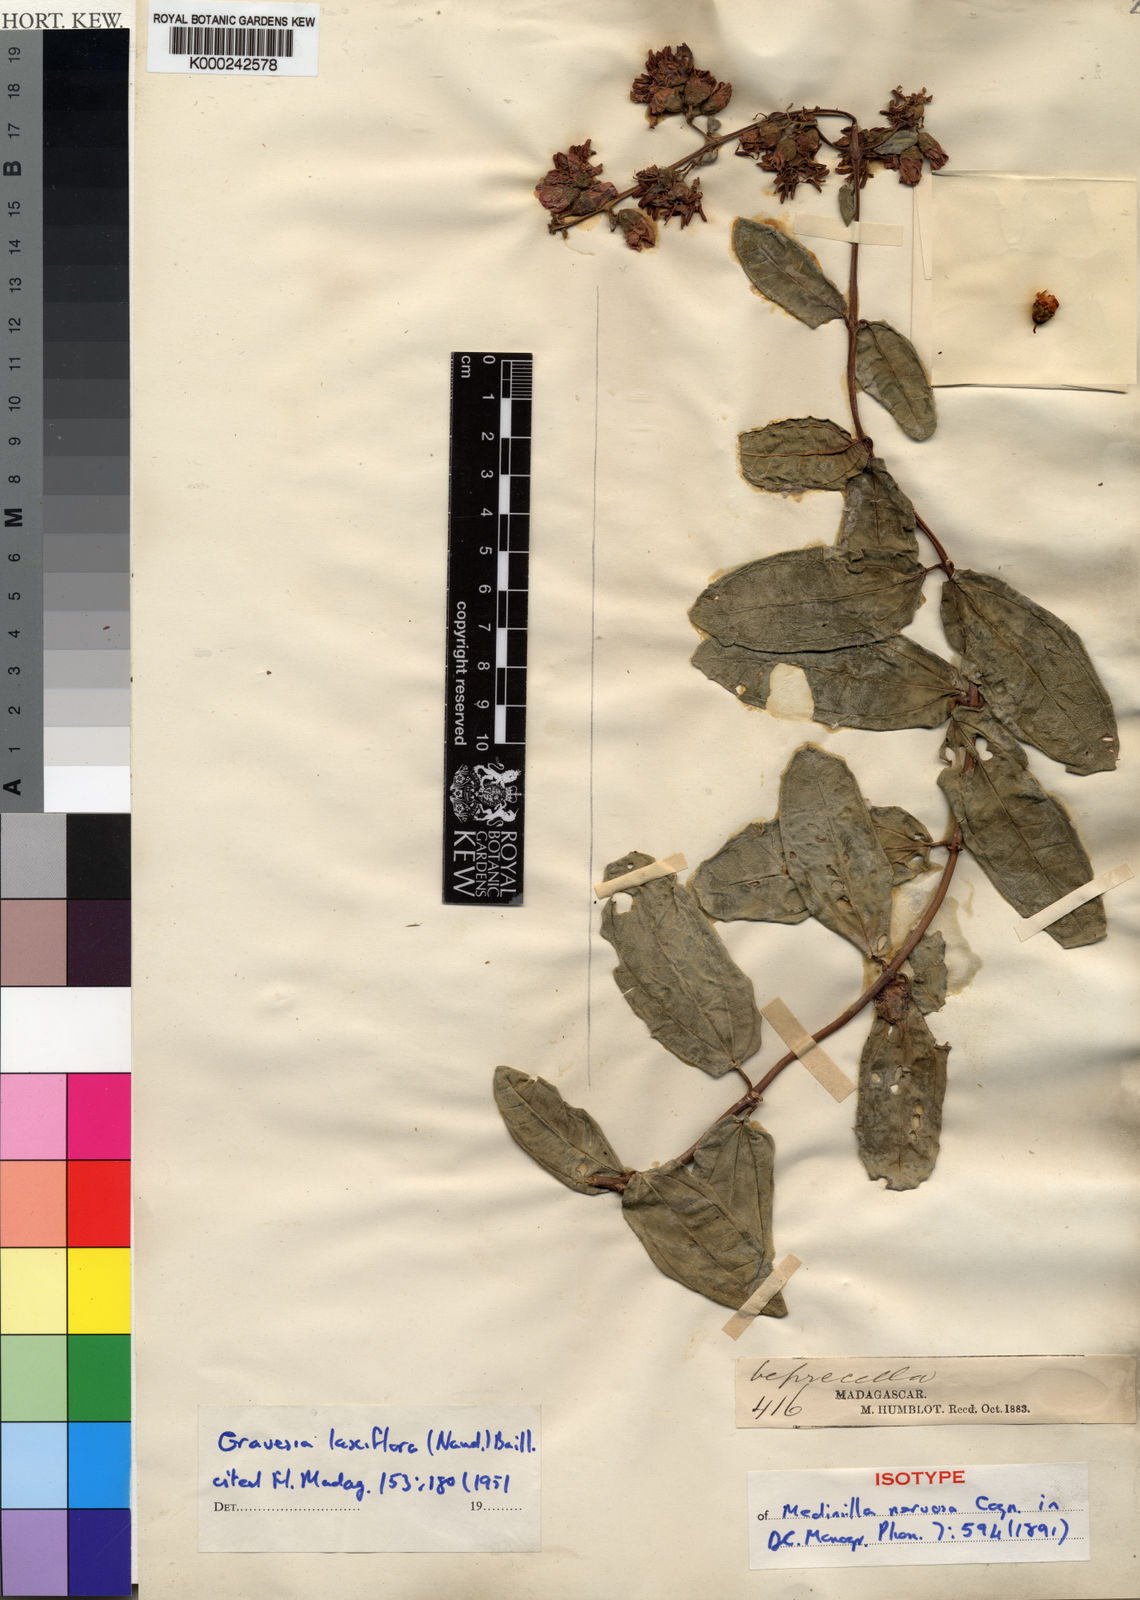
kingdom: Plantae
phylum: Tracheophyta
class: Magnoliopsida
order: Myrtales
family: Melastomataceae
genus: Gravesia
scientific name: Gravesia
